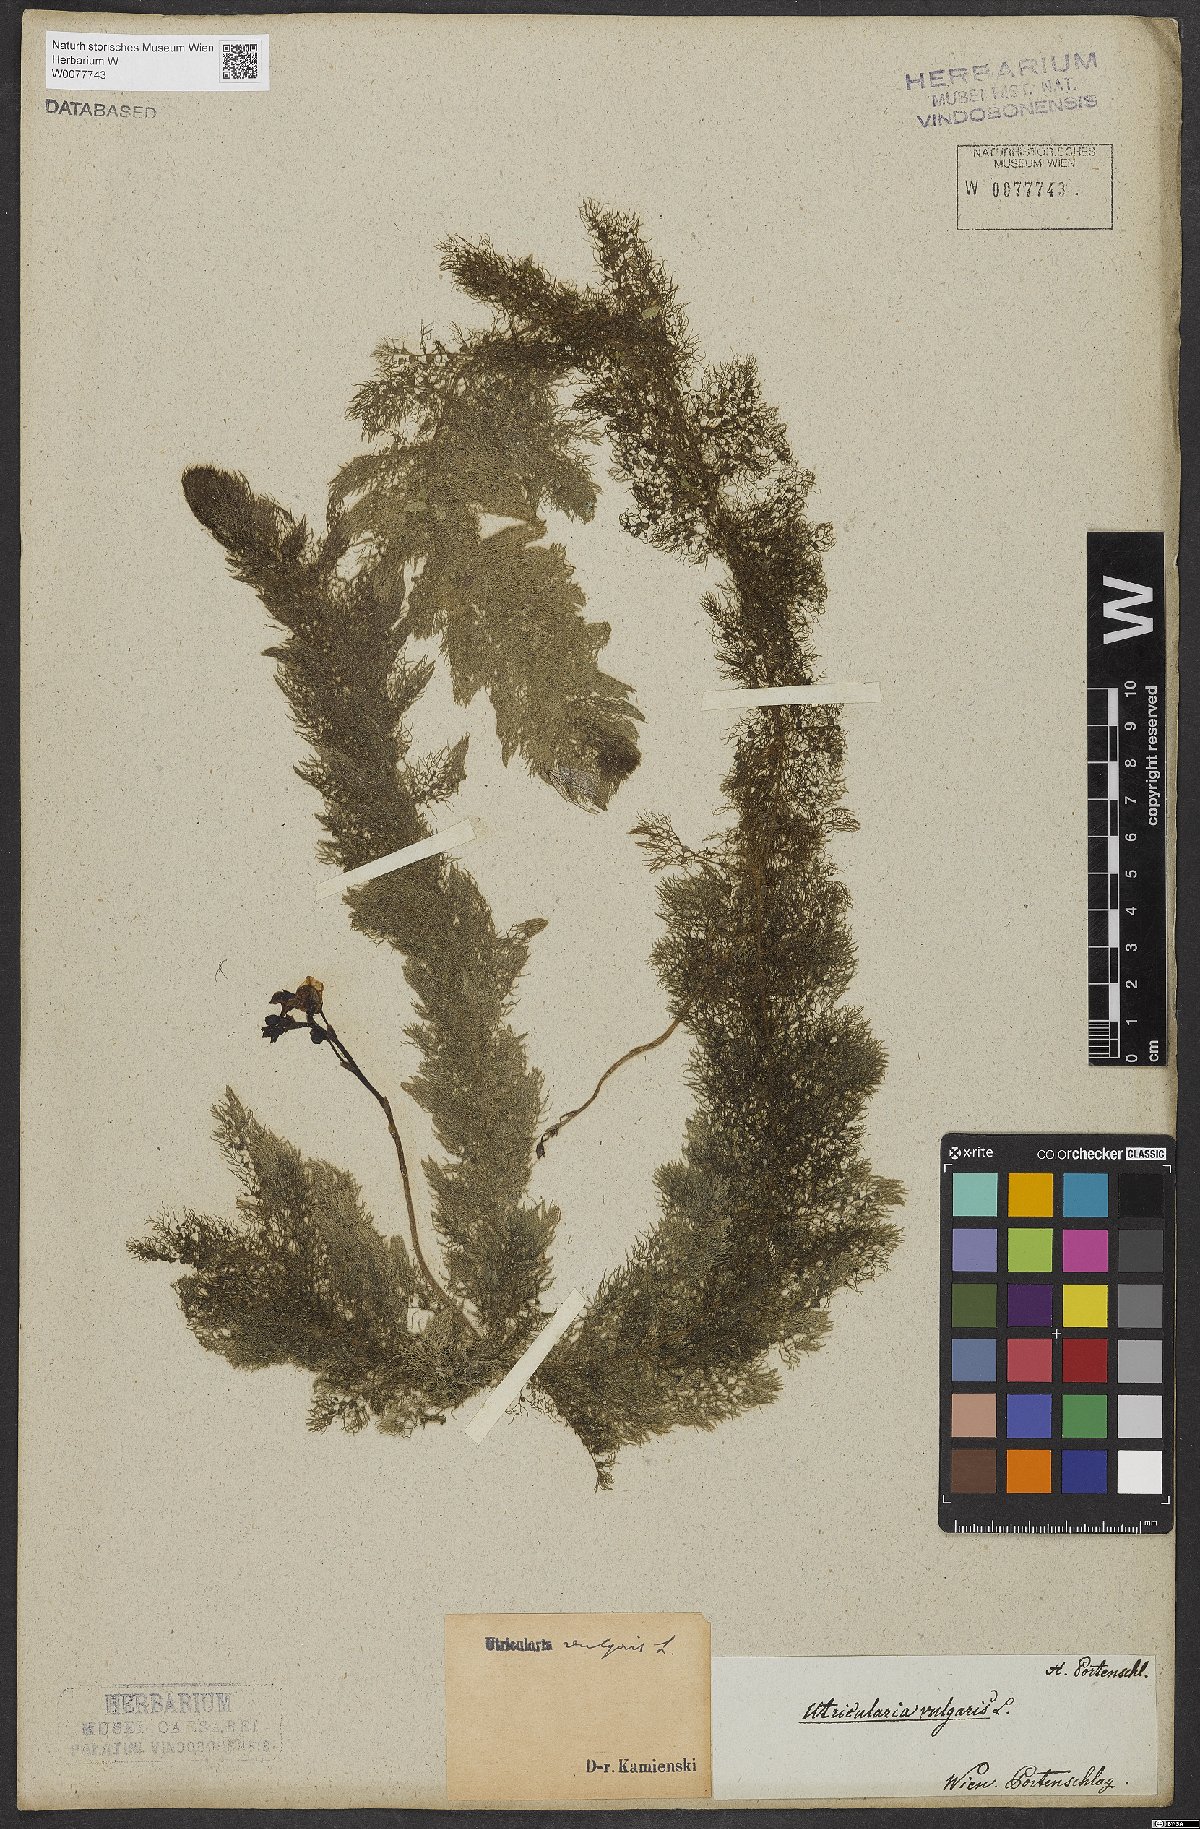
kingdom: Plantae
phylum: Tracheophyta
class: Magnoliopsida
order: Lamiales
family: Lentibulariaceae
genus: Utricularia
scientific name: Utricularia vulgaris
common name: Greater bladderwort
